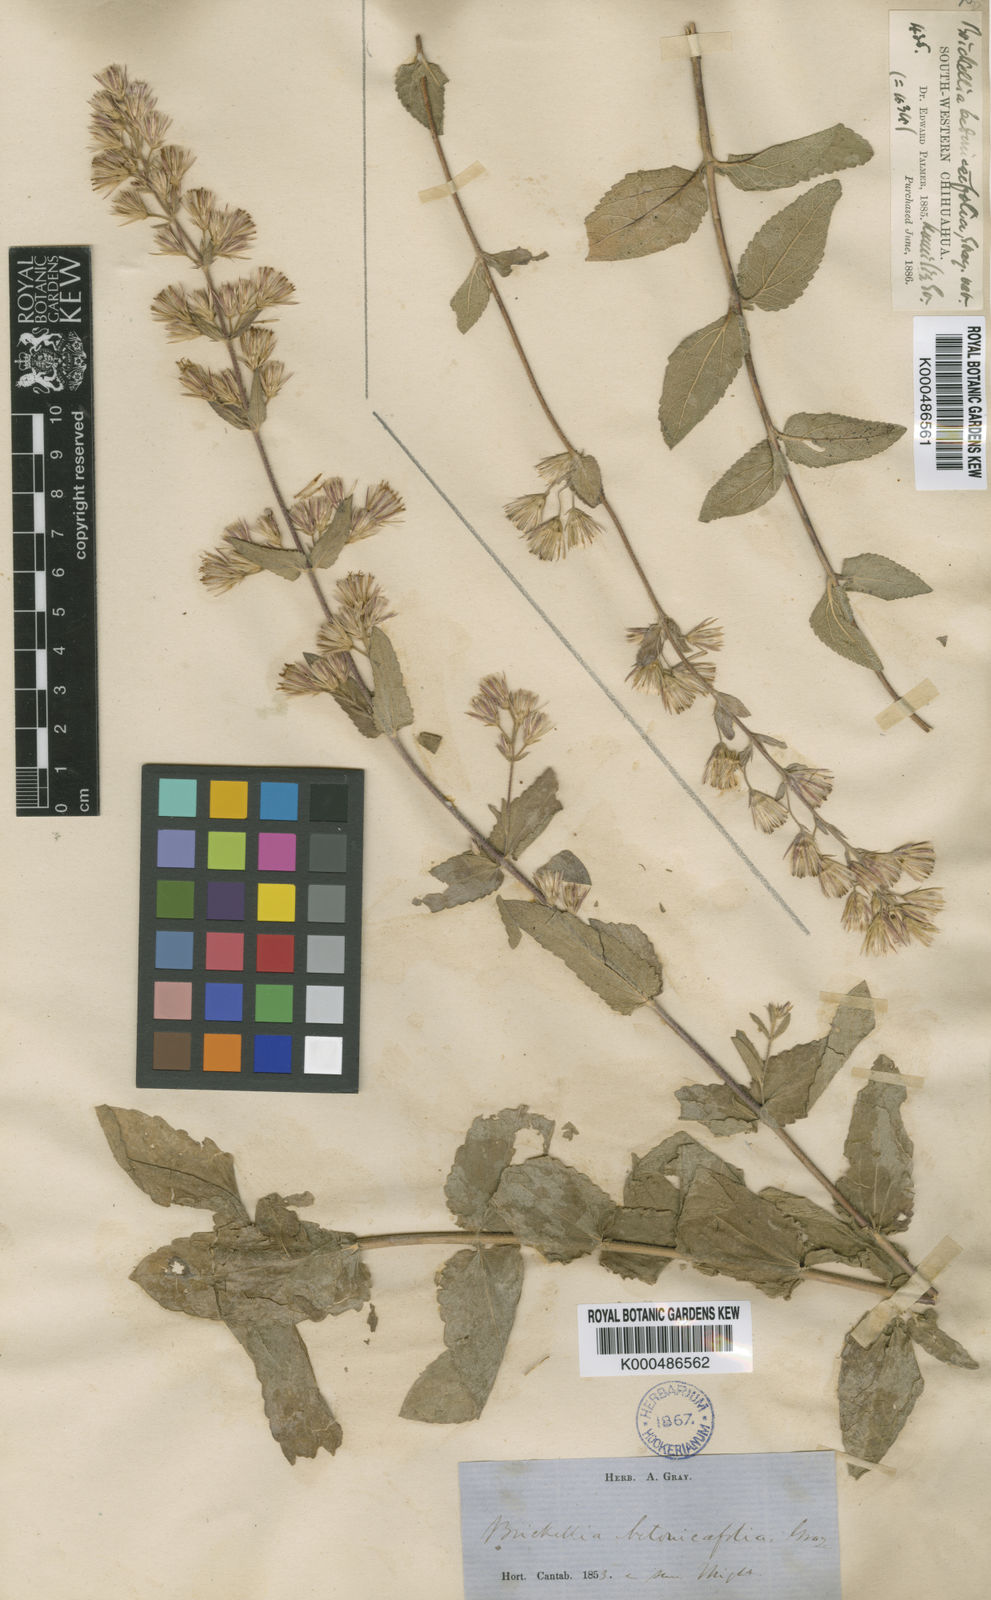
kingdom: Plantae
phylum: Tracheophyta
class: Magnoliopsida
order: Asterales
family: Asteraceae
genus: Brickellia
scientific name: Brickellia betonicifolia
